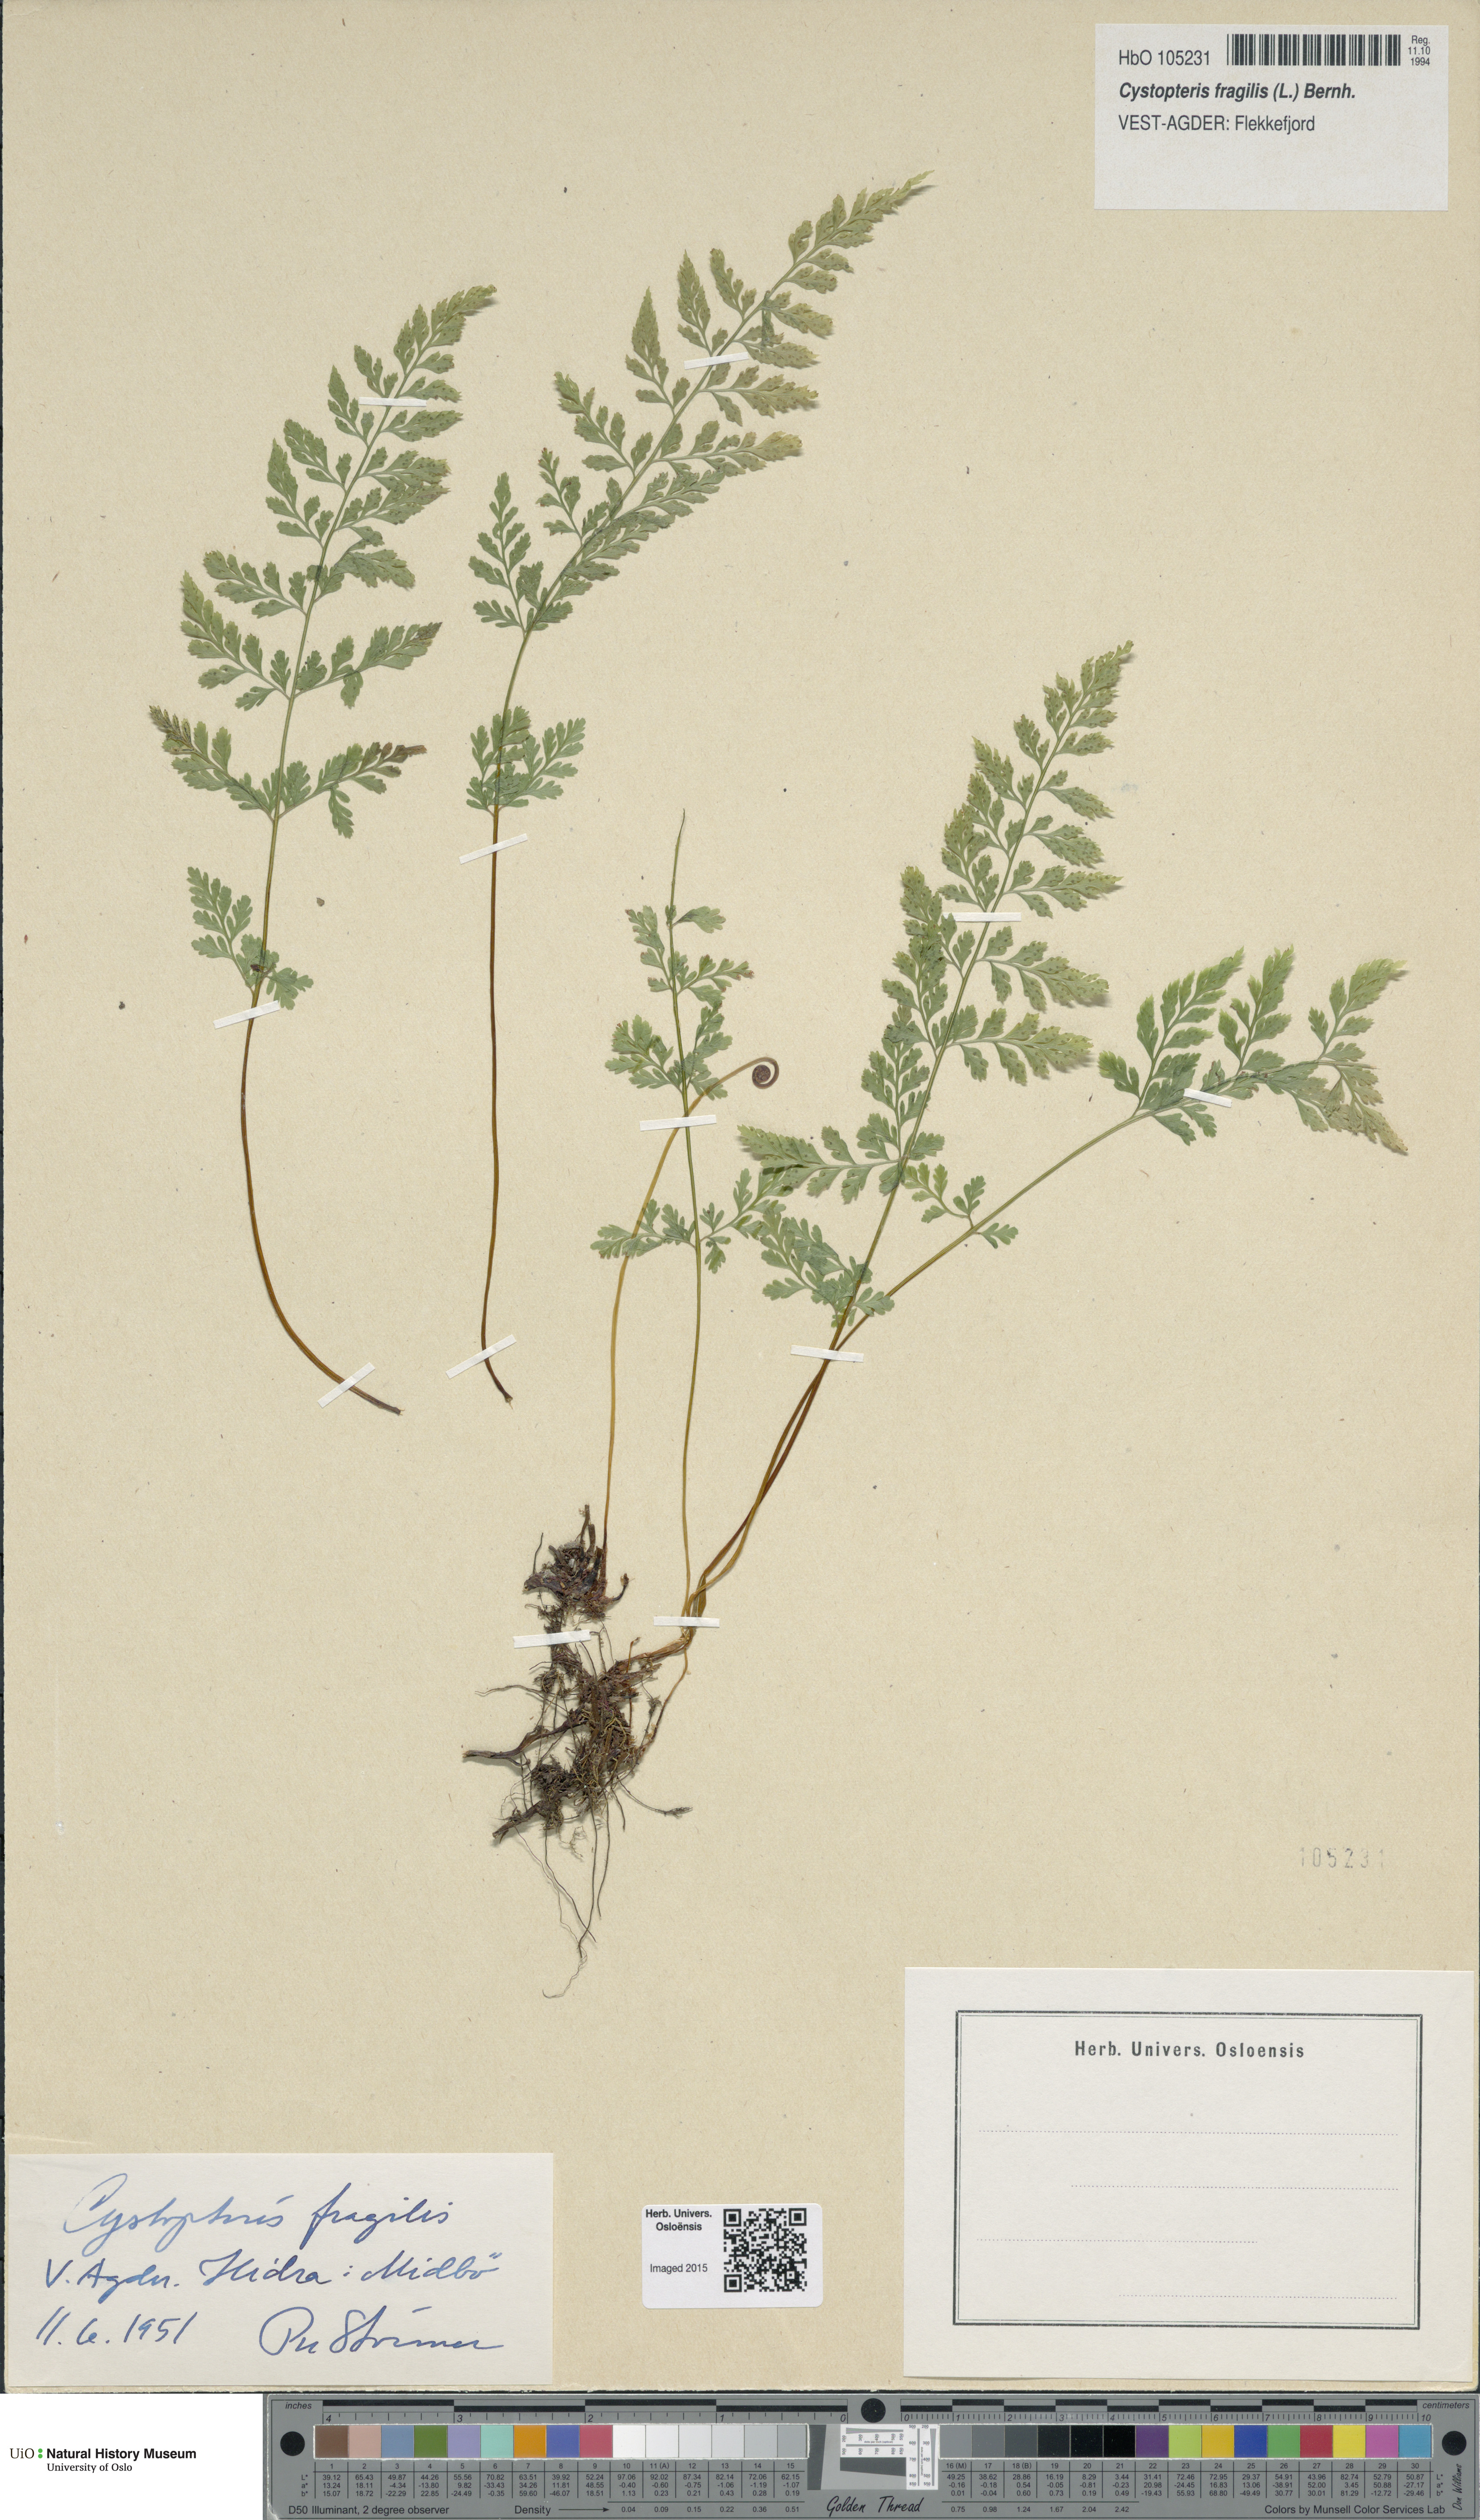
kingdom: Plantae
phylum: Tracheophyta
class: Polypodiopsida
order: Polypodiales
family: Cystopteridaceae
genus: Cystopteris
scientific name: Cystopteris fragilis
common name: Brittle bladder fern
